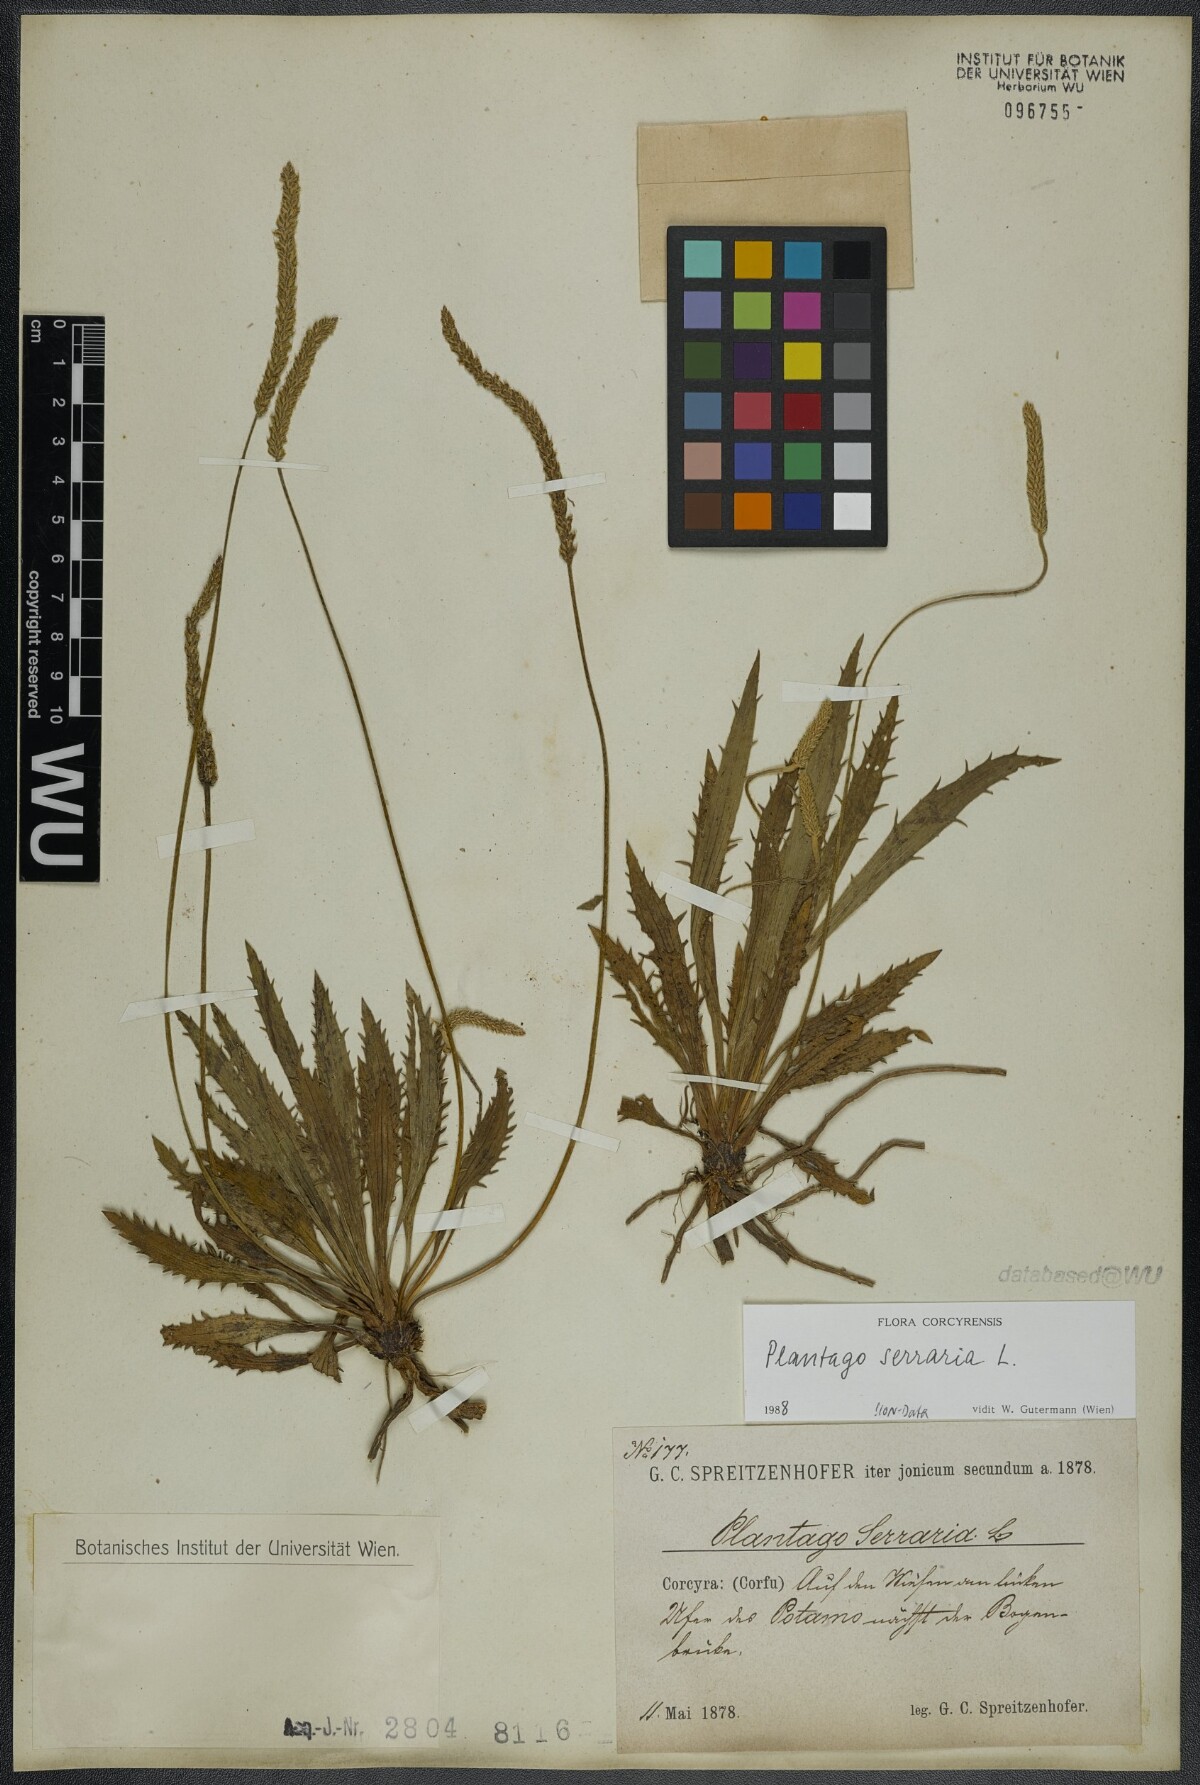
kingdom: Plantae
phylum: Tracheophyta
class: Magnoliopsida
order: Lamiales
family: Plantaginaceae
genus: Plantago
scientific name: Plantago serraria
